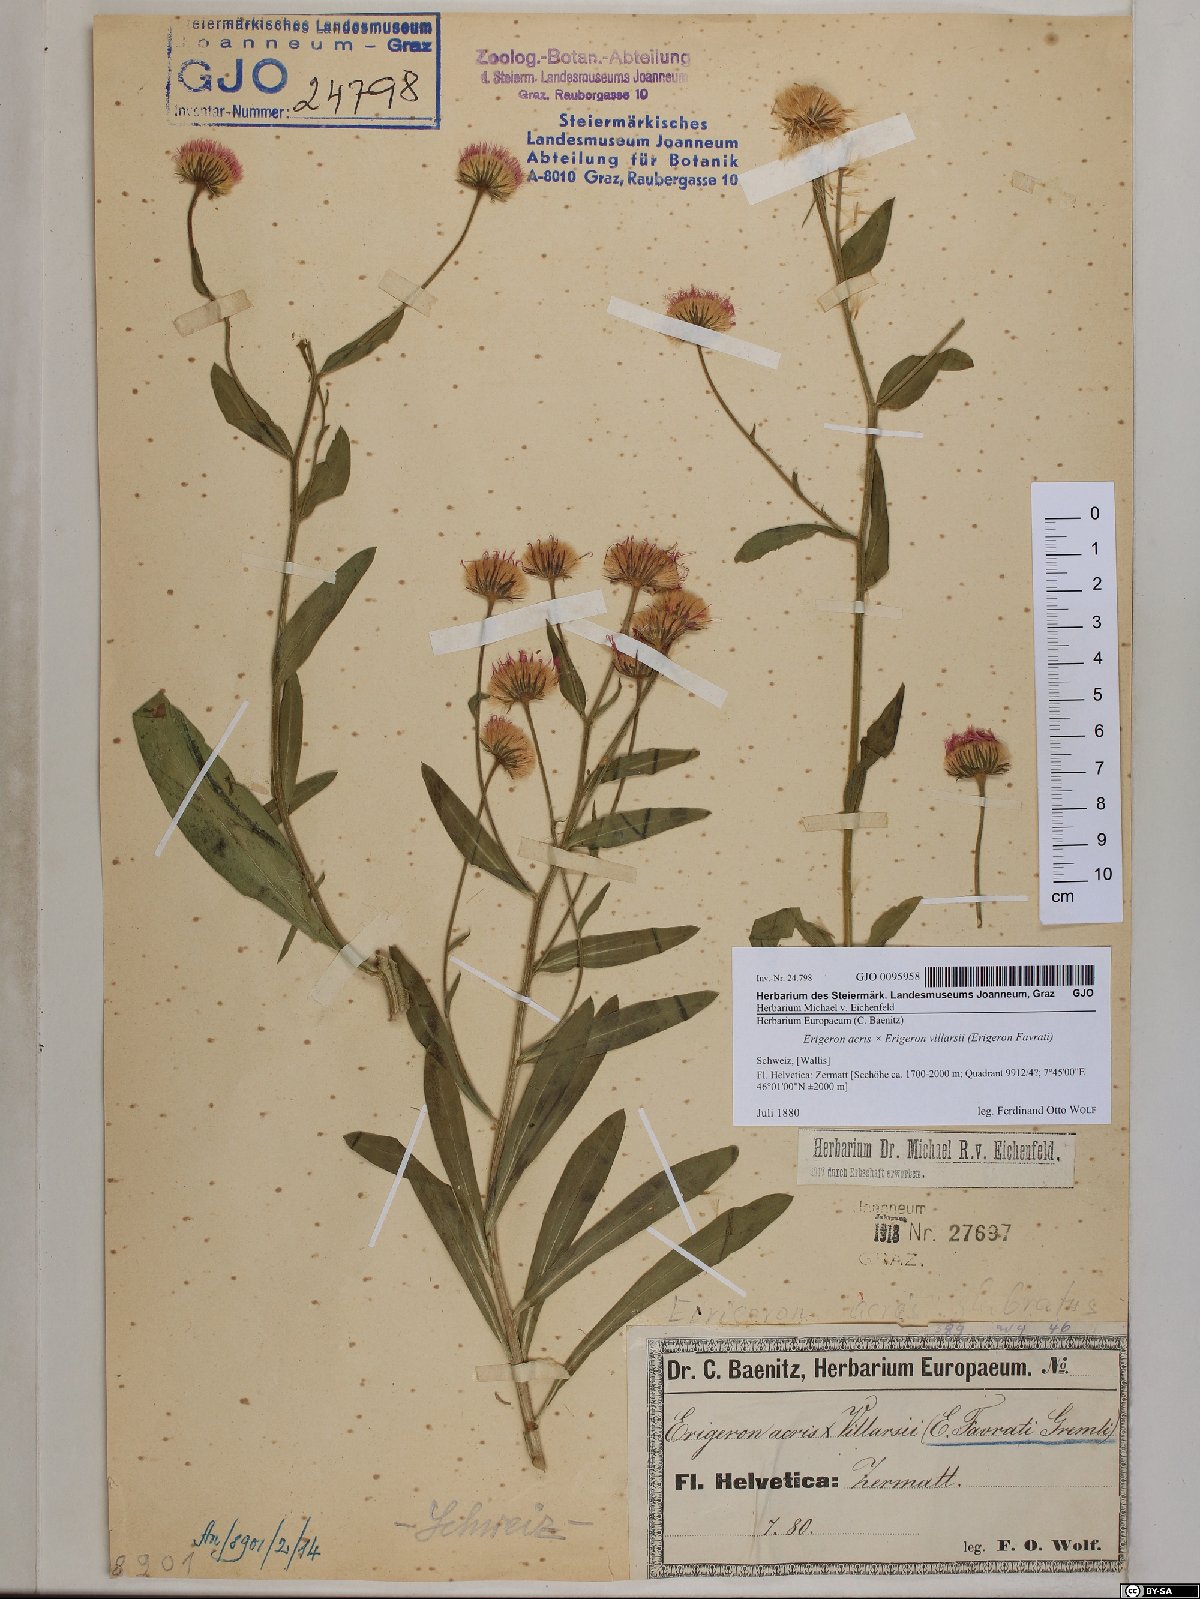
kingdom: Plantae
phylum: Tracheophyta
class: Magnoliopsida
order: Asterales
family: Asteraceae
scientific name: Asteraceae
